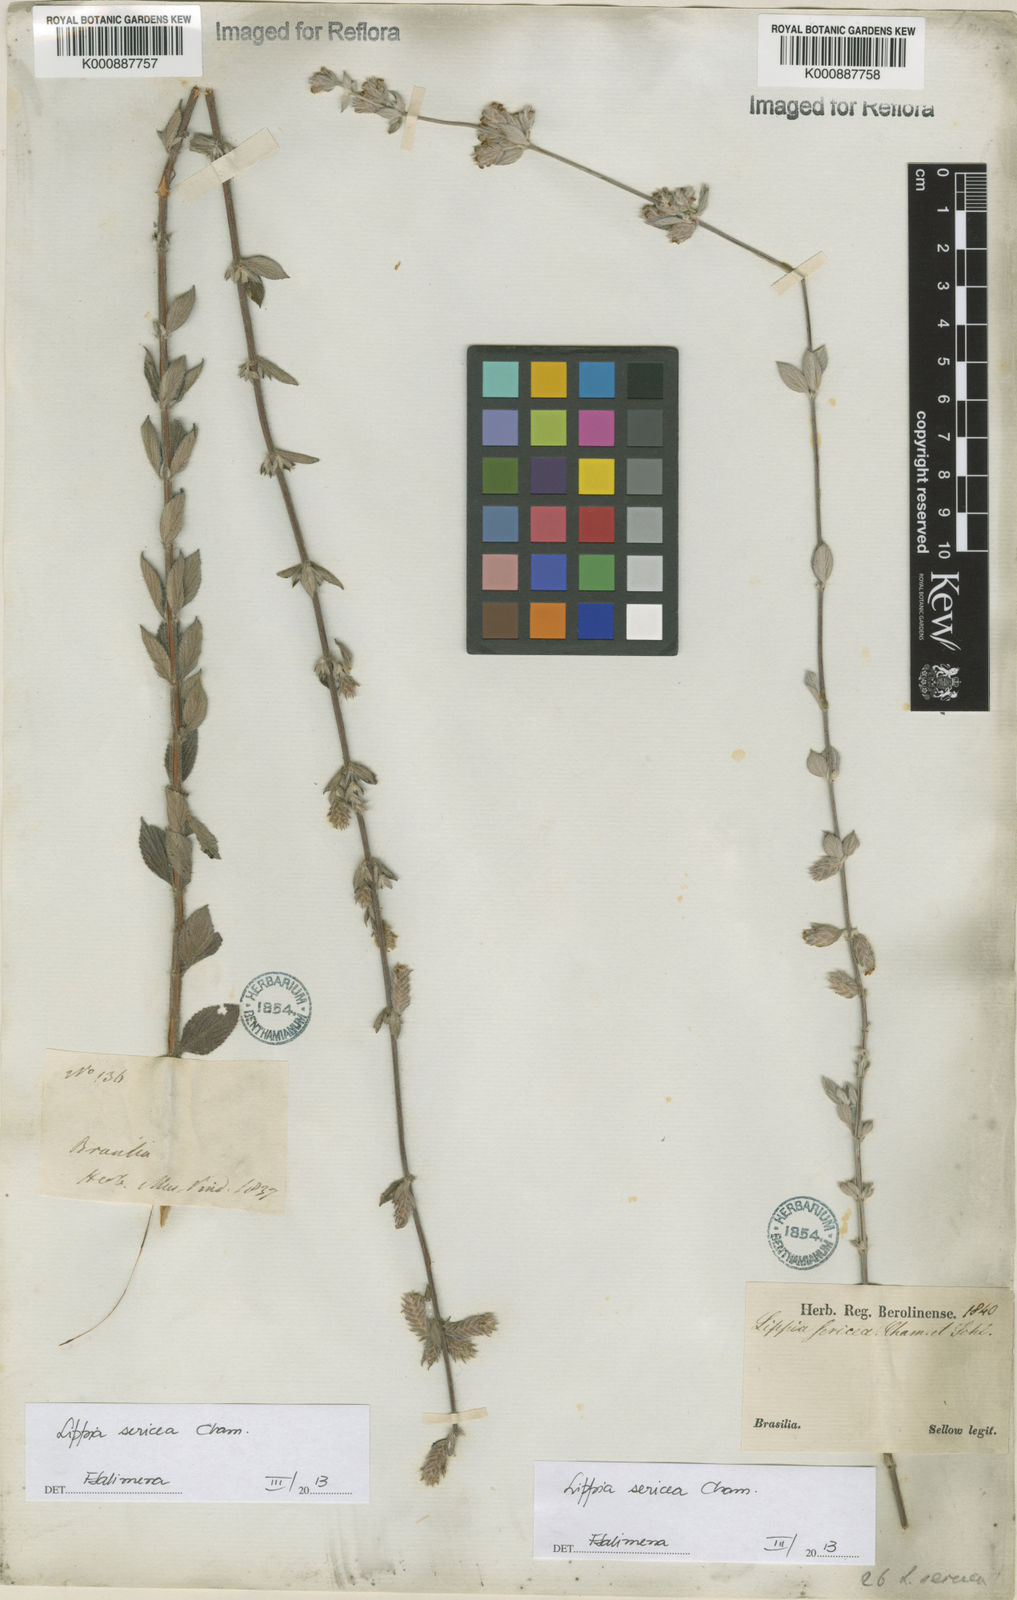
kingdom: Plantae
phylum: Tracheophyta
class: Magnoliopsida
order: Lamiales
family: Verbenaceae
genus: Lippia
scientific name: Lippia sericea
